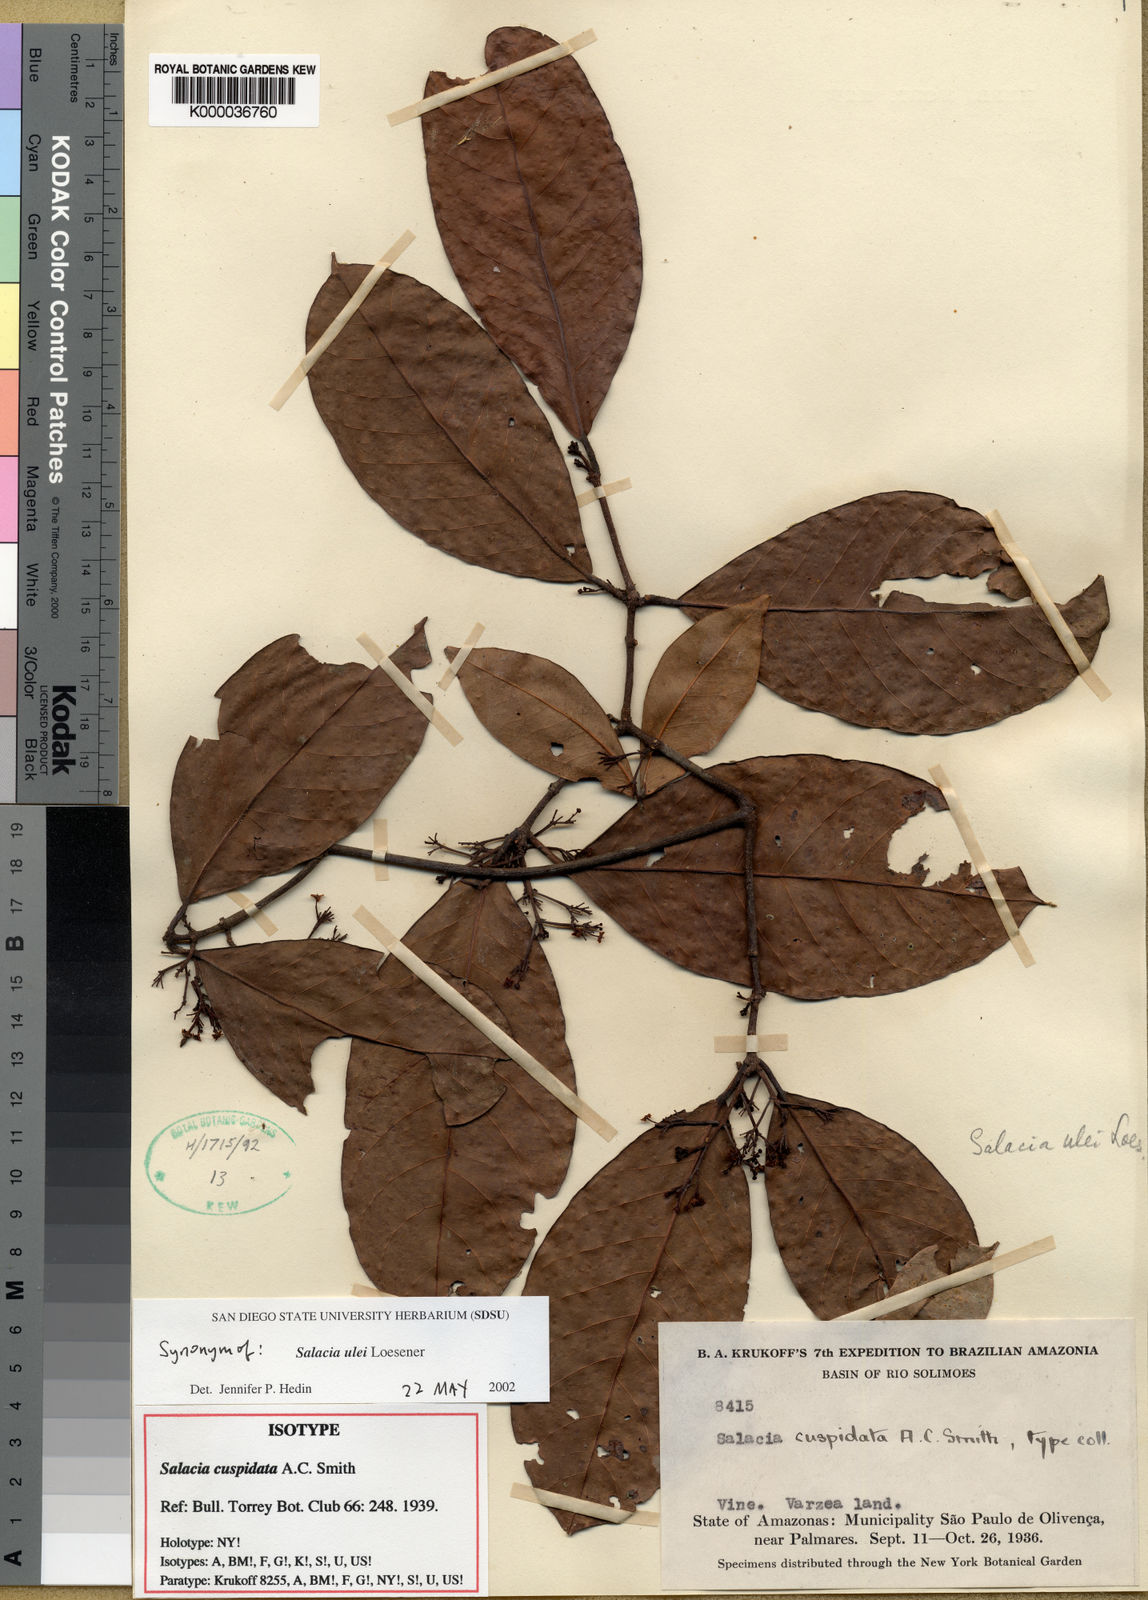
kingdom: Plantae
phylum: Tracheophyta
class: Magnoliopsida
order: Celastrales
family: Celastraceae
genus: Salacia
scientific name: Salacia ulei
